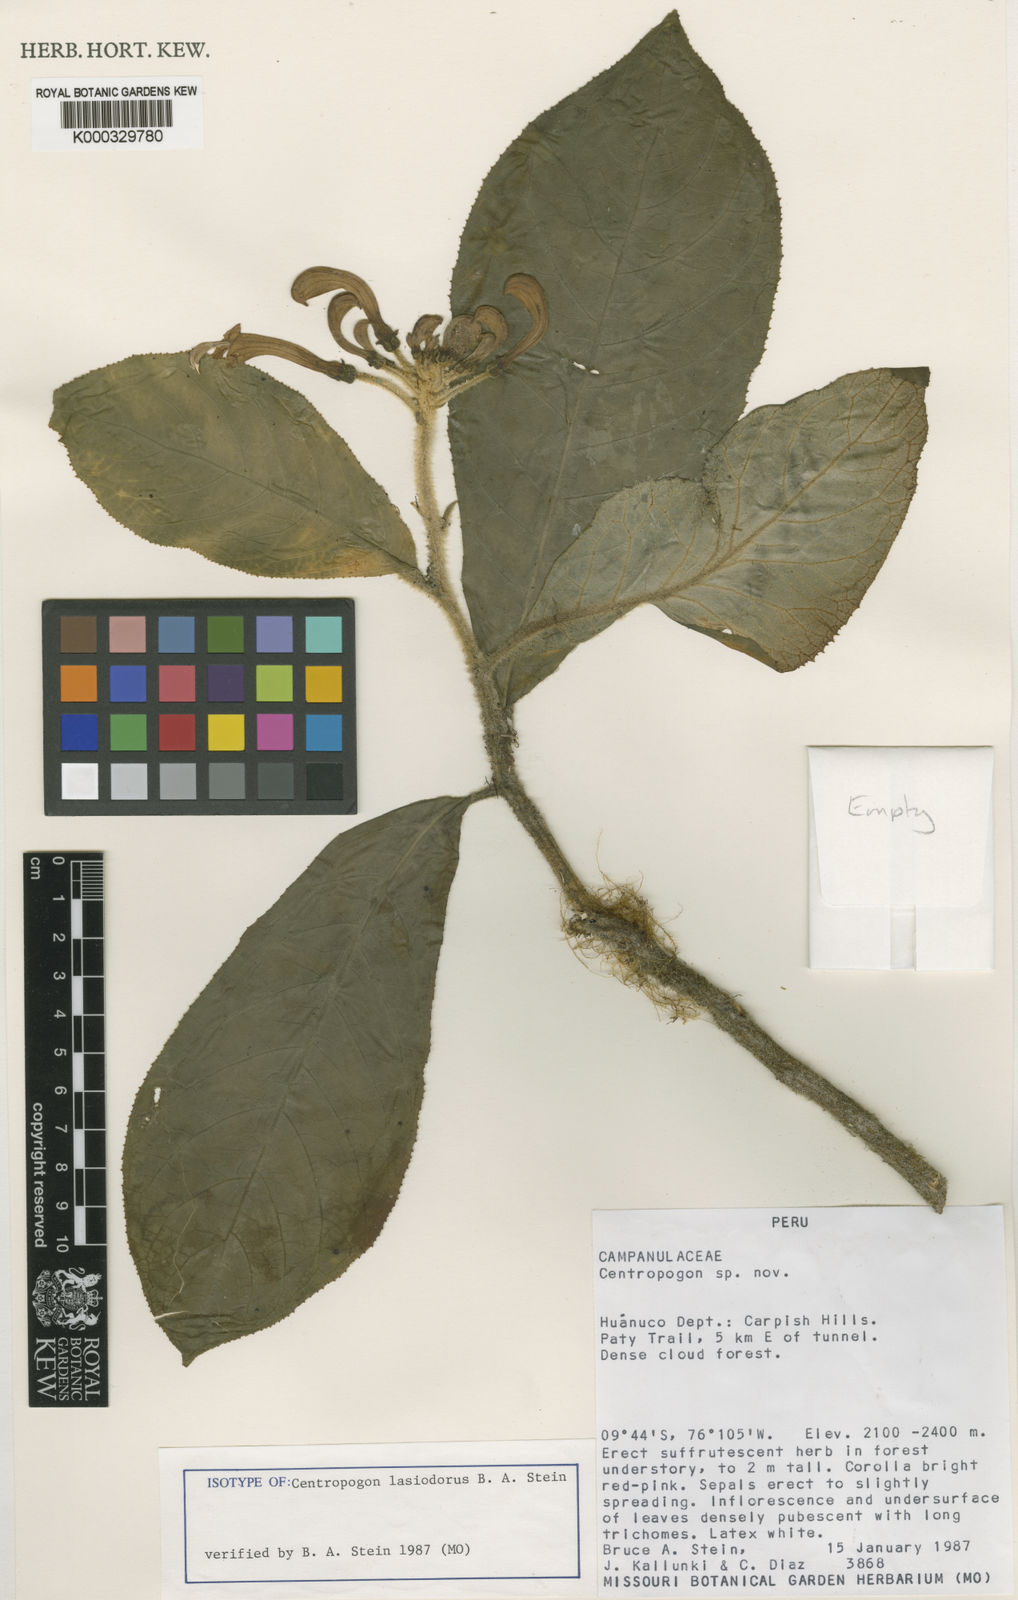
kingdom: Plantae
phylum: Tracheophyta
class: Magnoliopsida
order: Asterales
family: Campanulaceae
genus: Centropogon
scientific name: Centropogon
